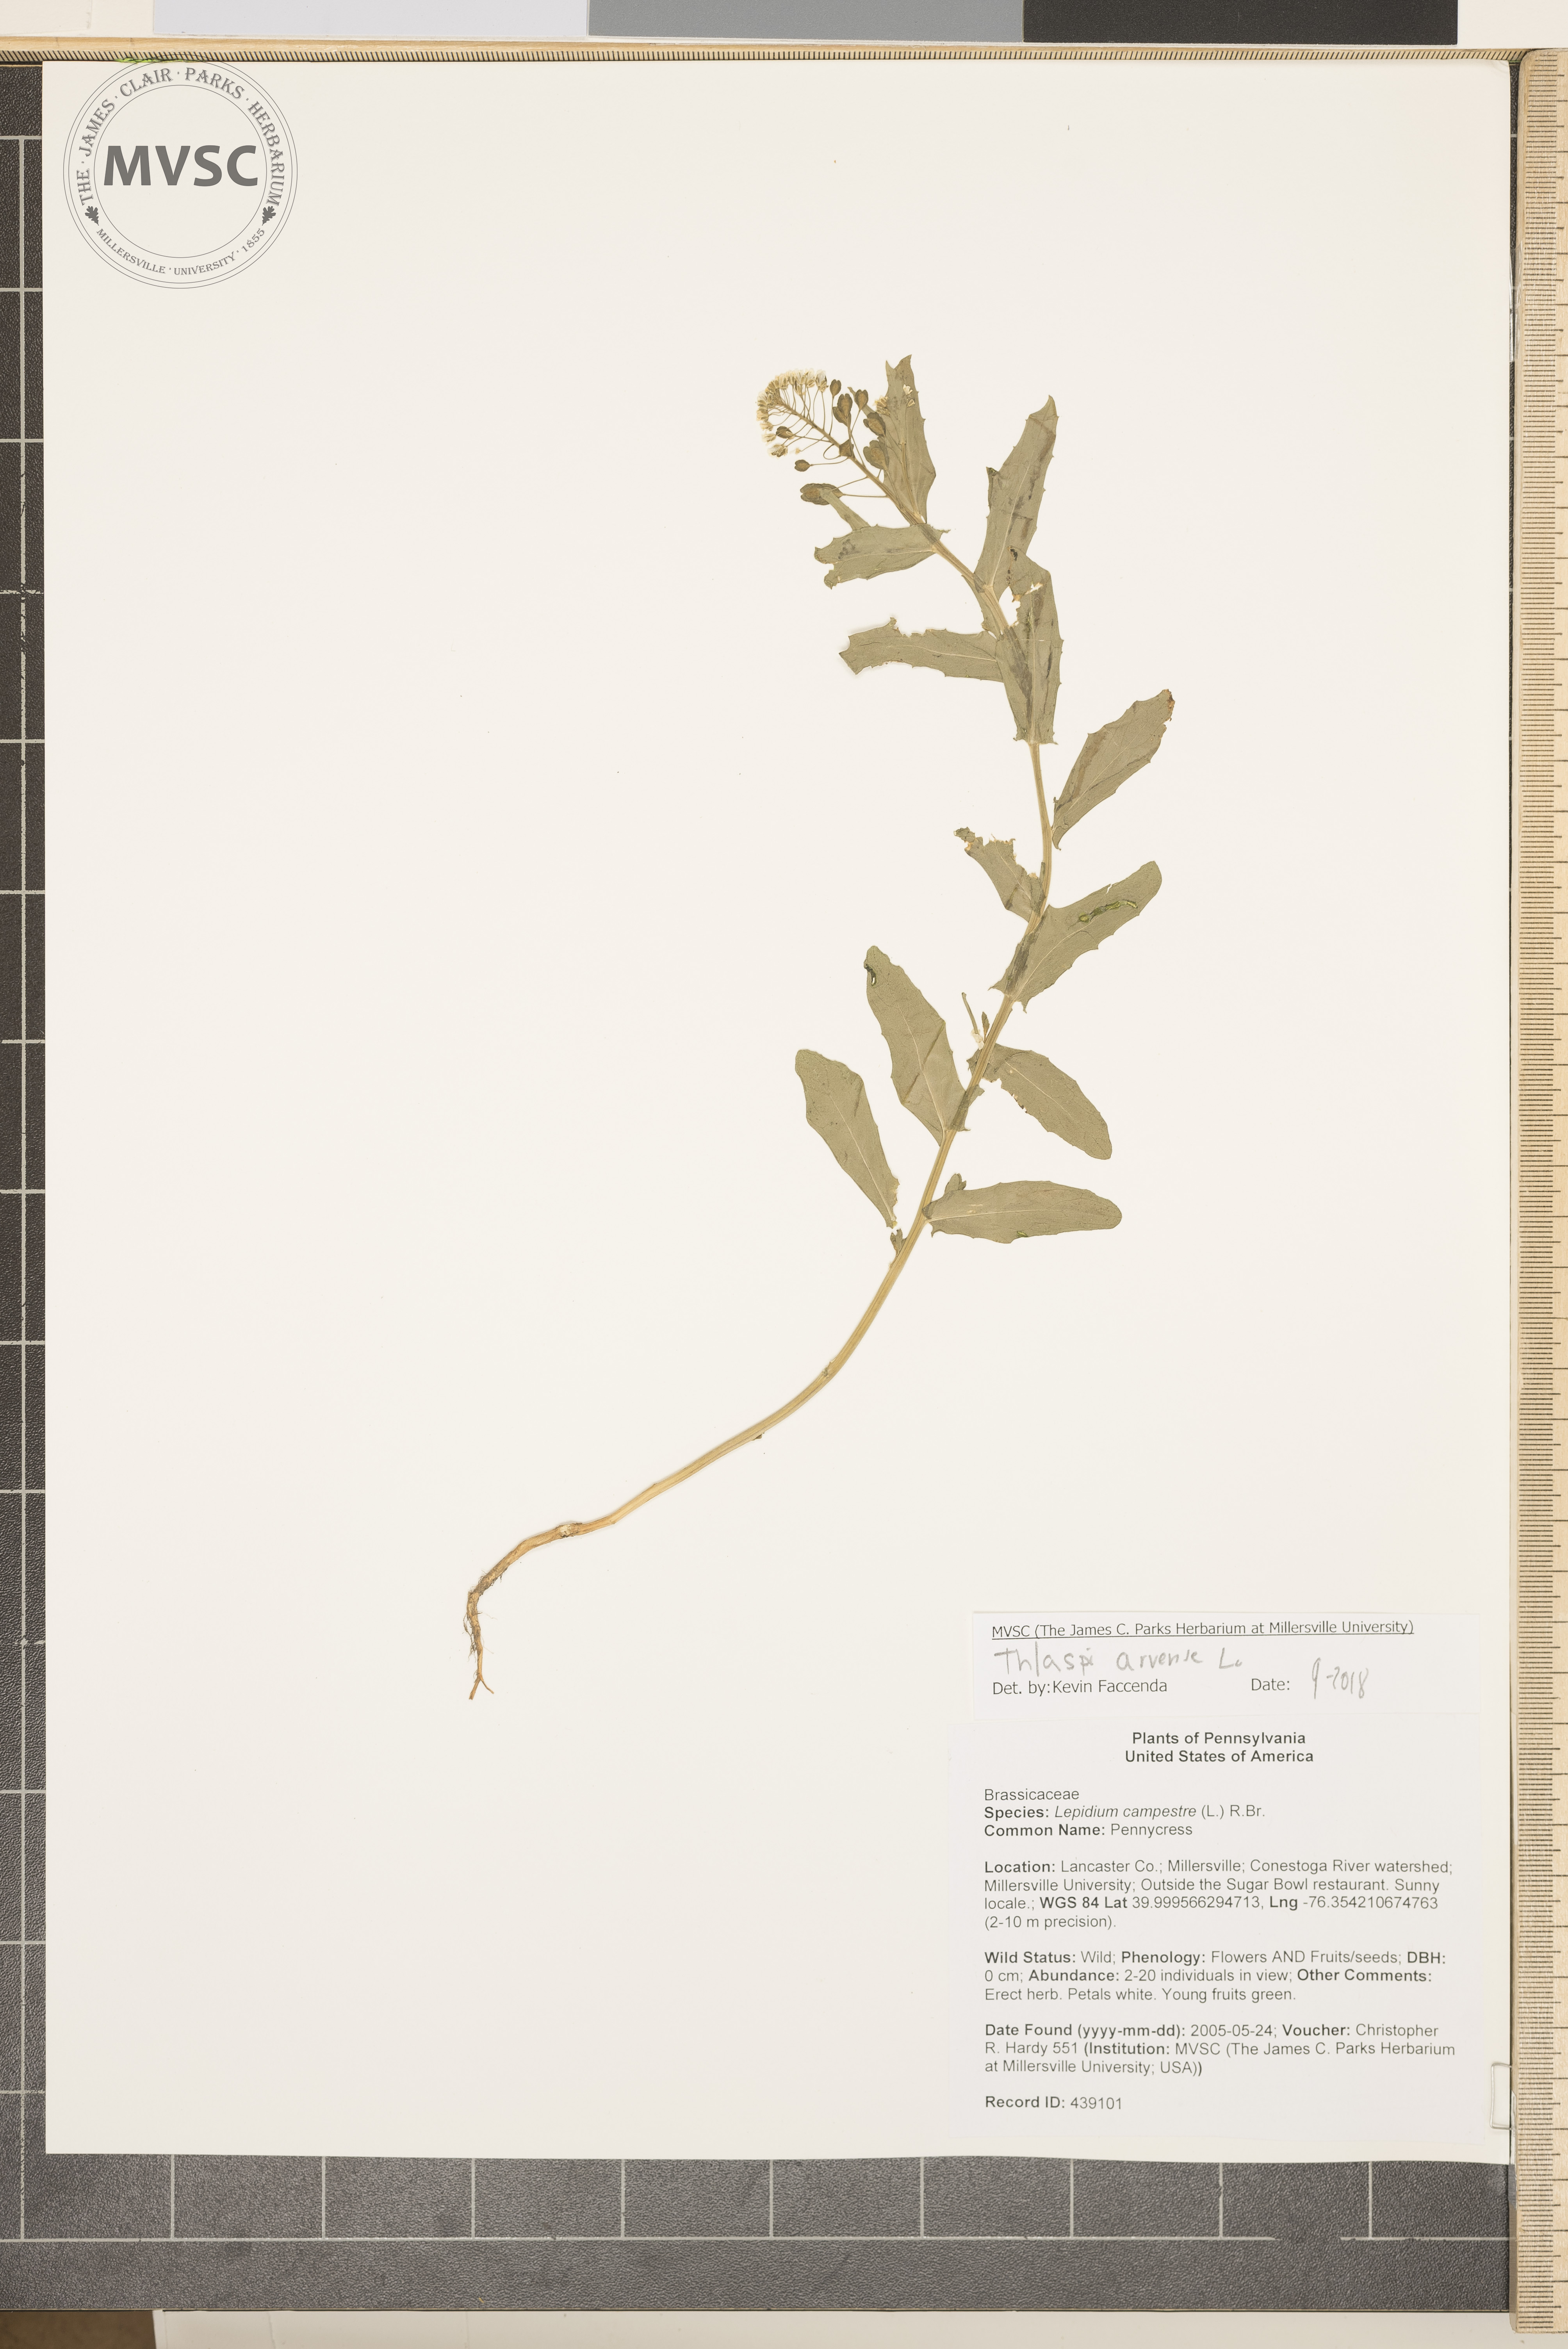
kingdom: Plantae
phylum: Tracheophyta
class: Magnoliopsida
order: Brassicales
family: Brassicaceae
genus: Thlaspi
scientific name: Thlaspi arvense
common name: Pennycress
